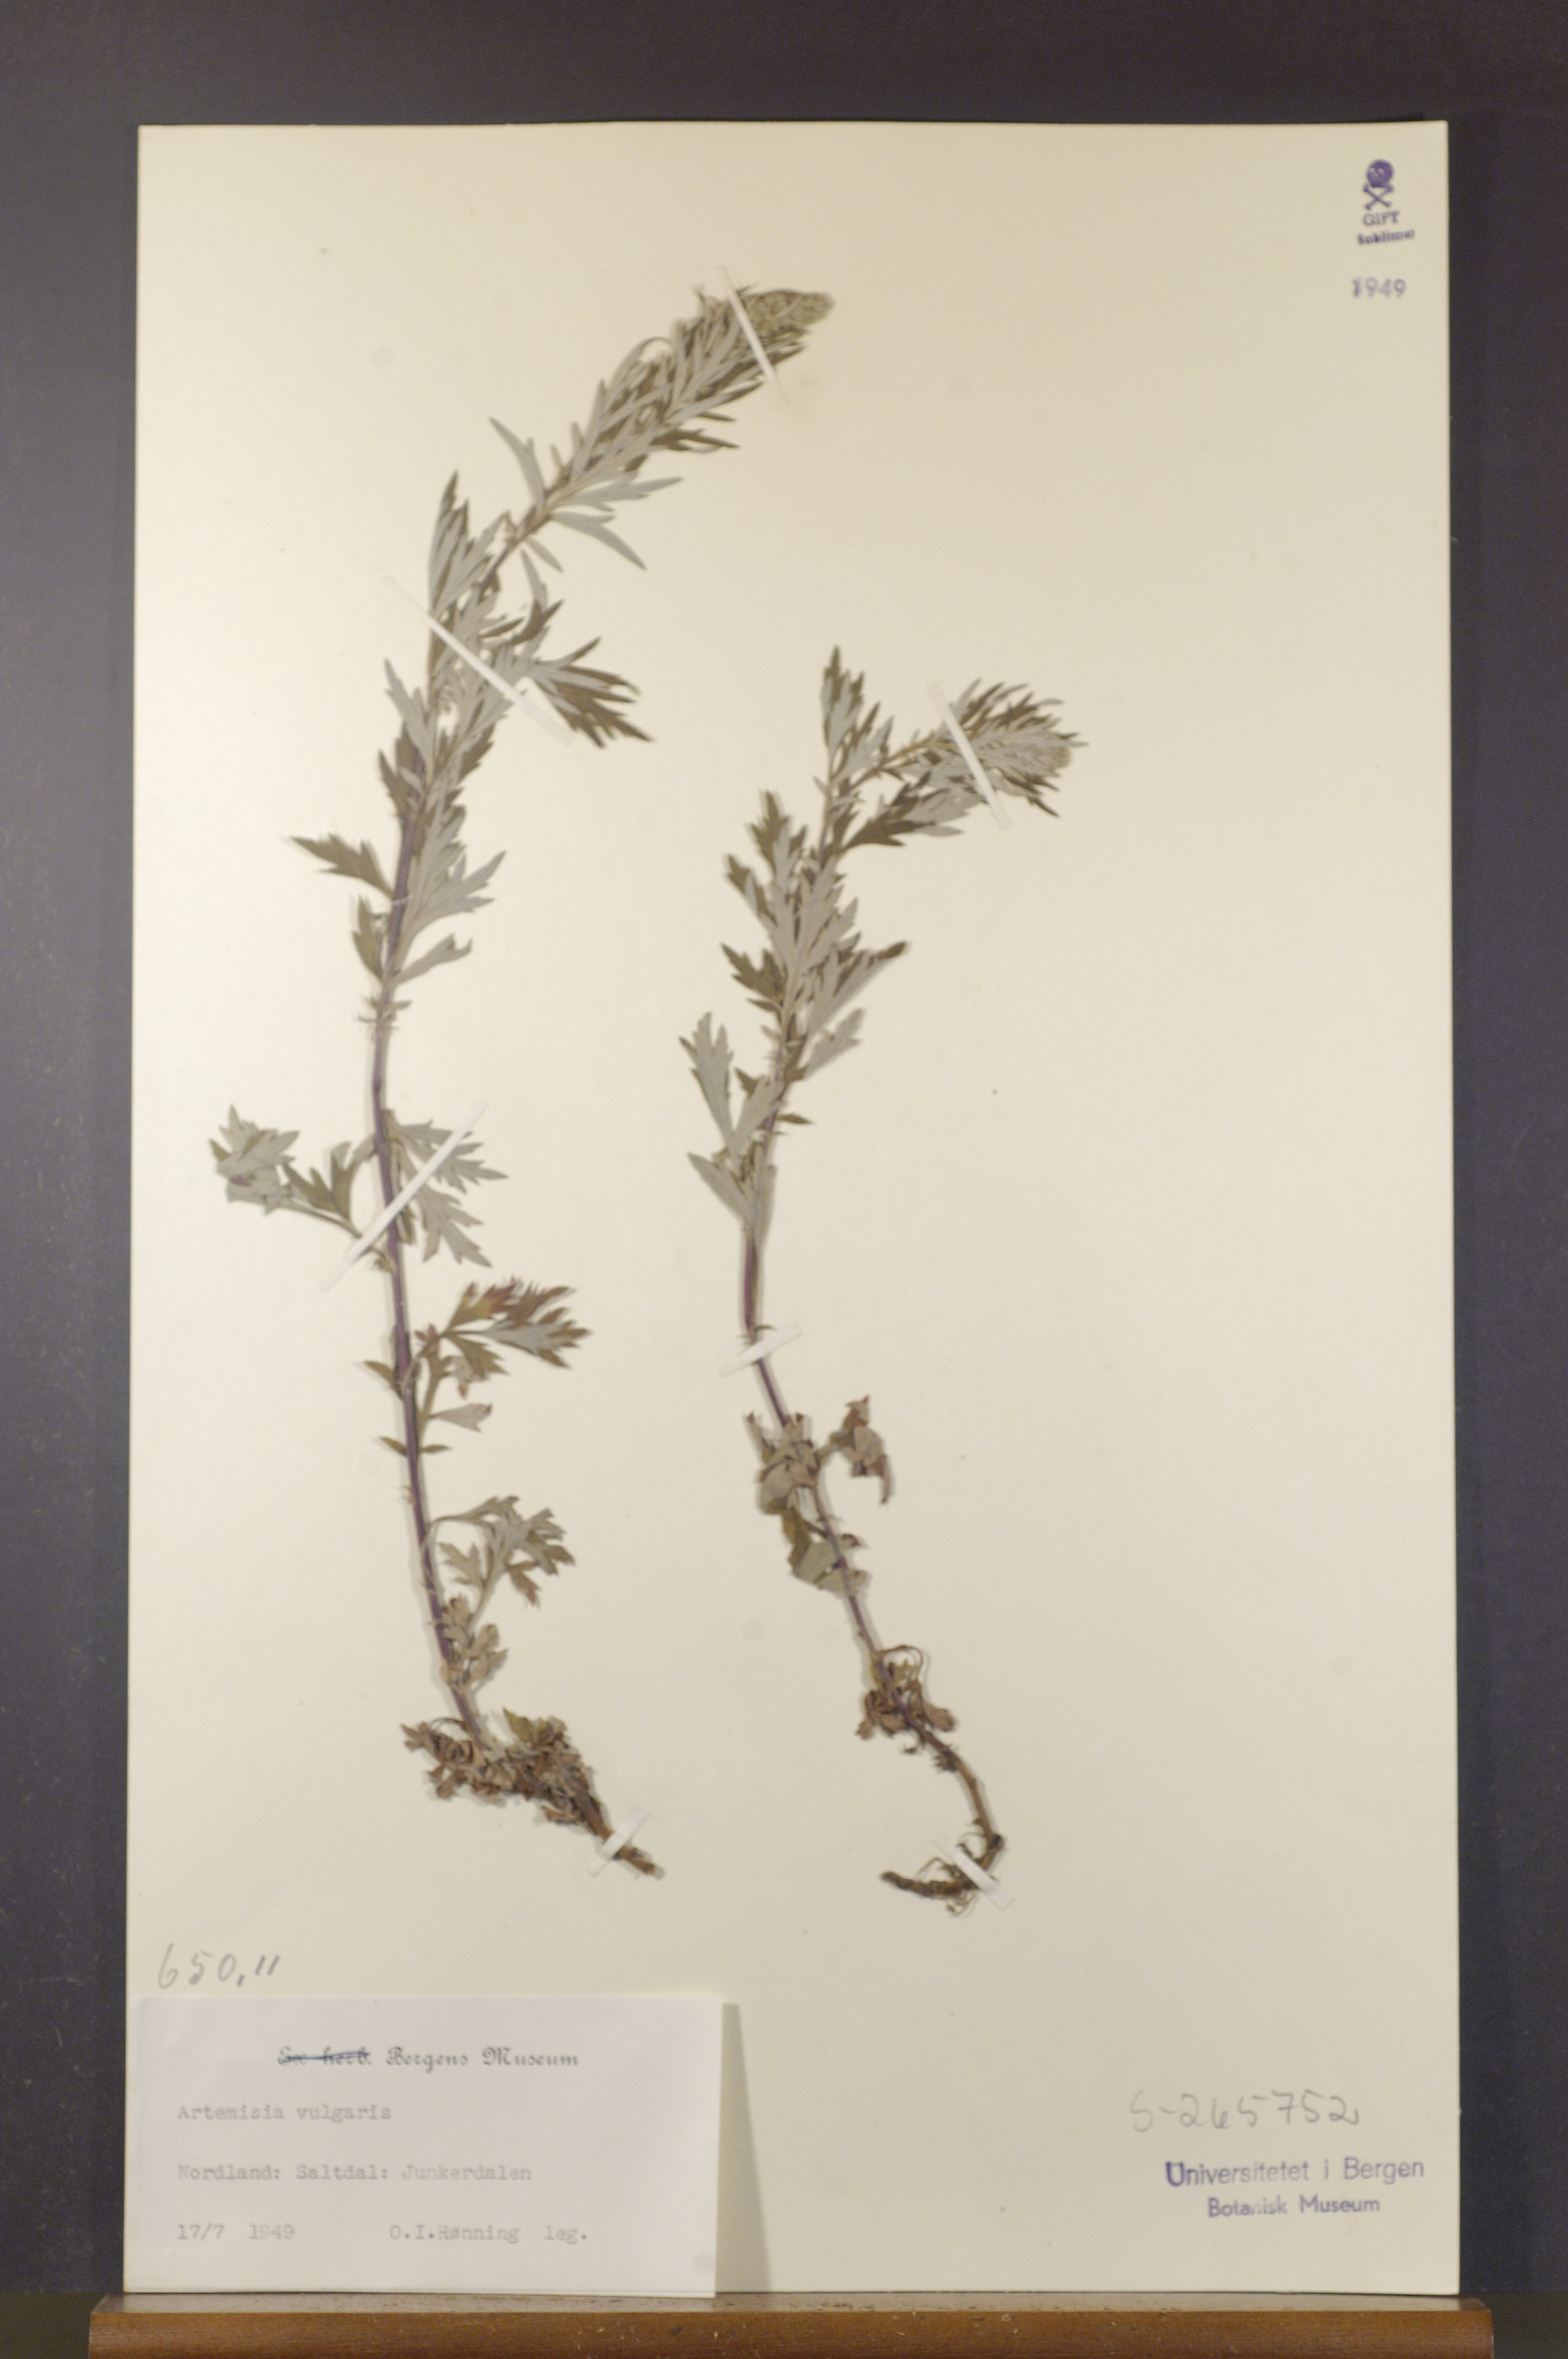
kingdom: Plantae
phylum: Tracheophyta
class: Magnoliopsida
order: Asterales
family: Asteraceae
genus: Artemisia
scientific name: Artemisia vulgaris
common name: Mugwort
